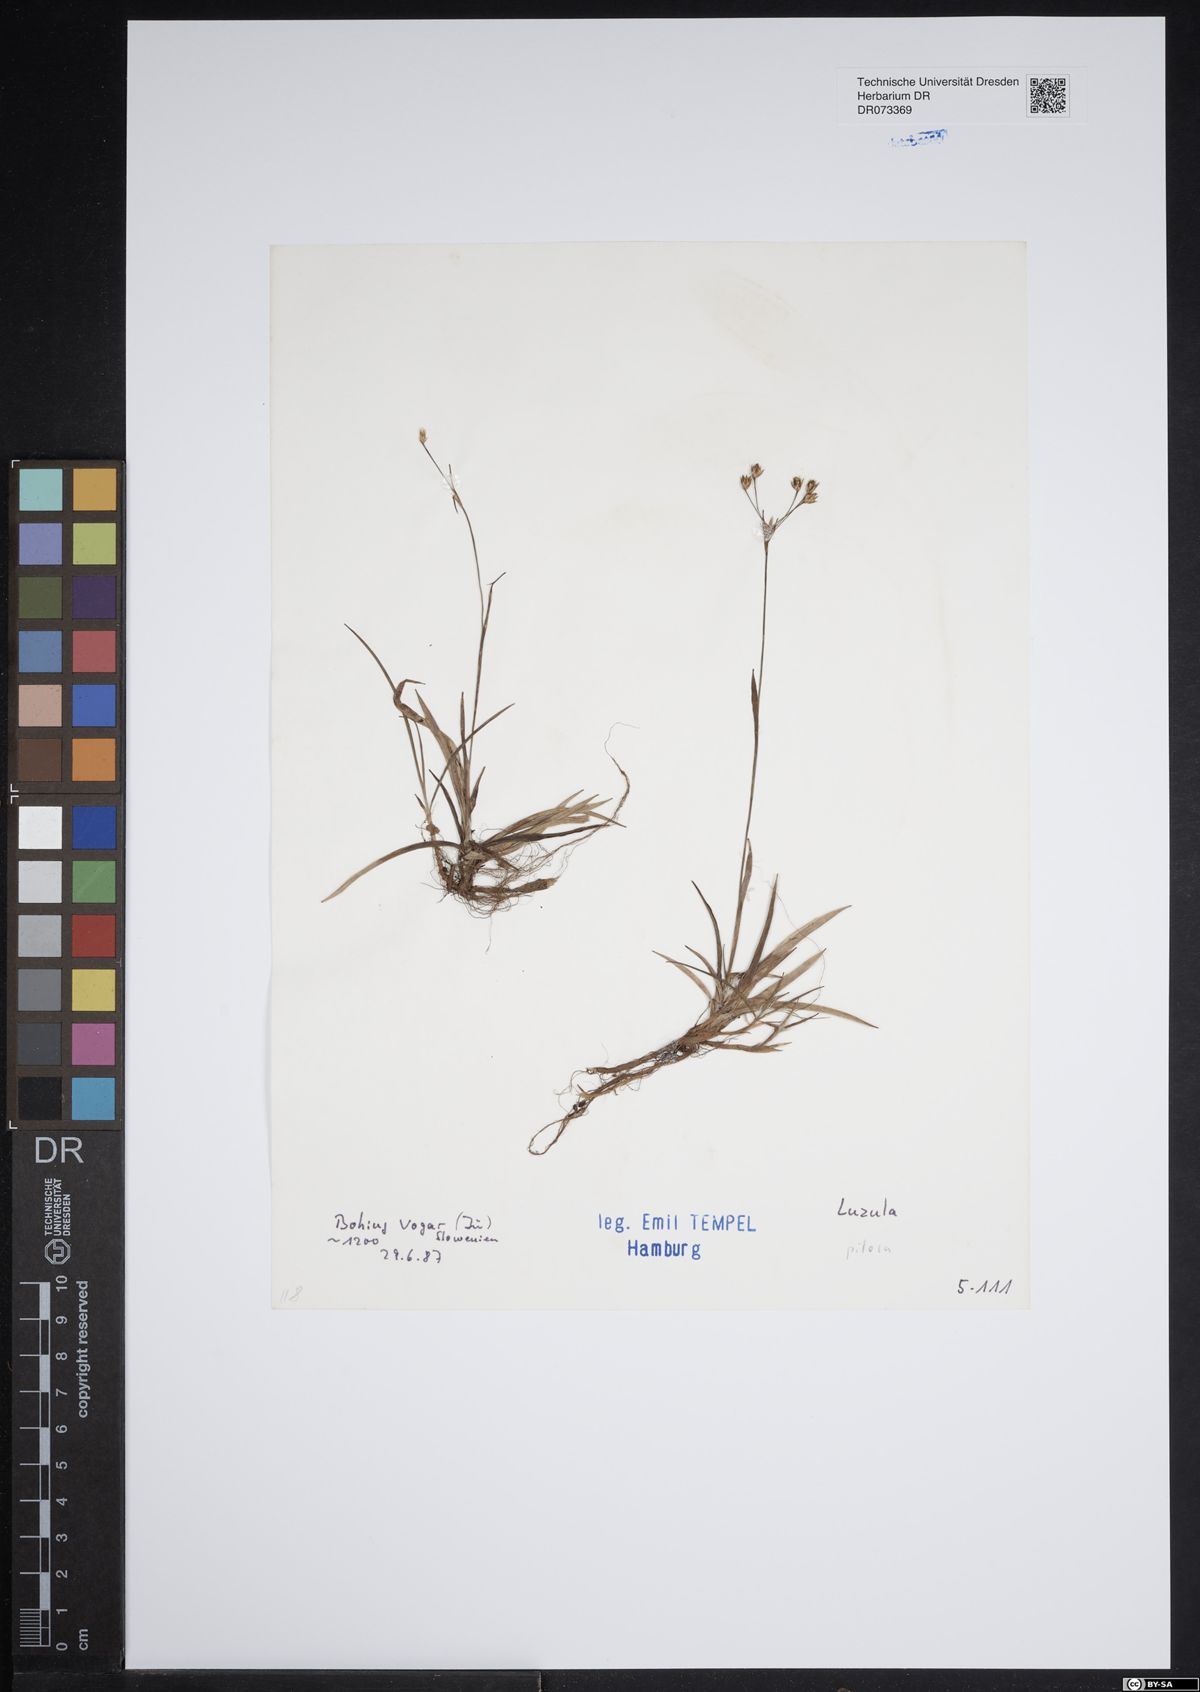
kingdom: Plantae
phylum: Tracheophyta
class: Liliopsida
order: Poales
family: Juncaceae
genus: Luzula
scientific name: Luzula pilosa
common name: Hairy wood-rush
